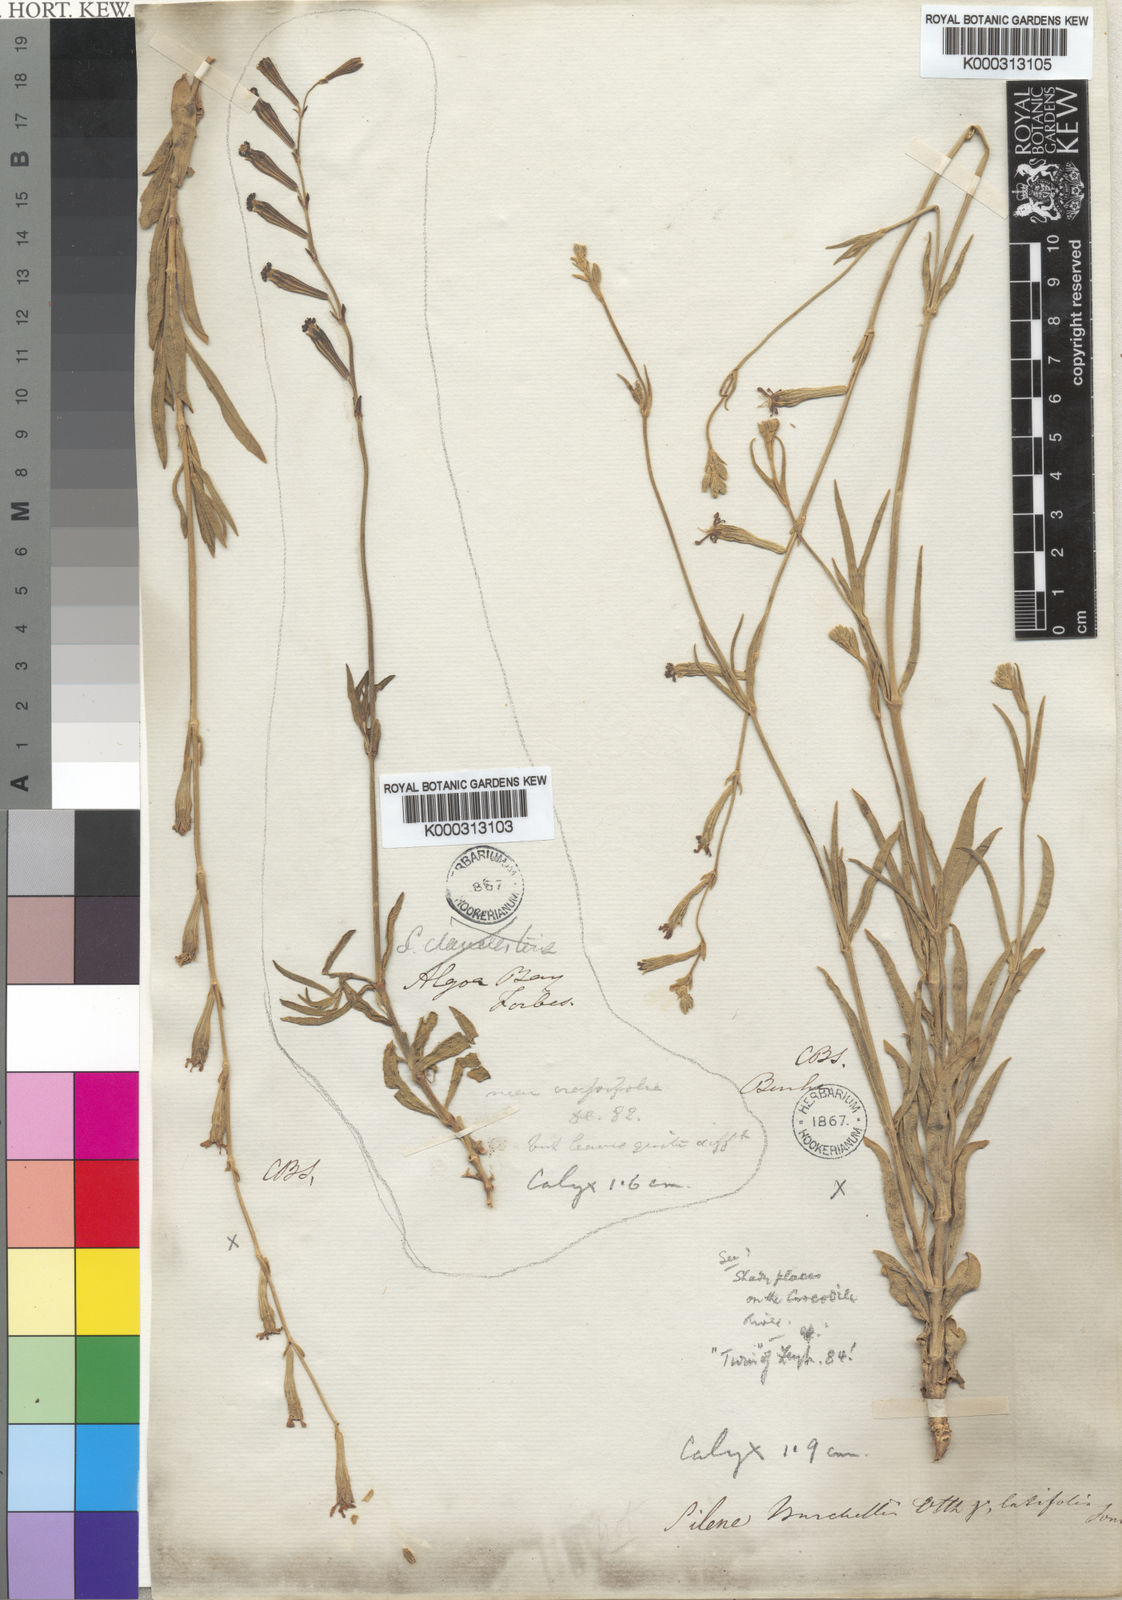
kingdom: Plantae
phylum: Tracheophyta
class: Magnoliopsida
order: Caryophyllales
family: Caryophyllaceae
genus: Silene
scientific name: Silene burchellii
